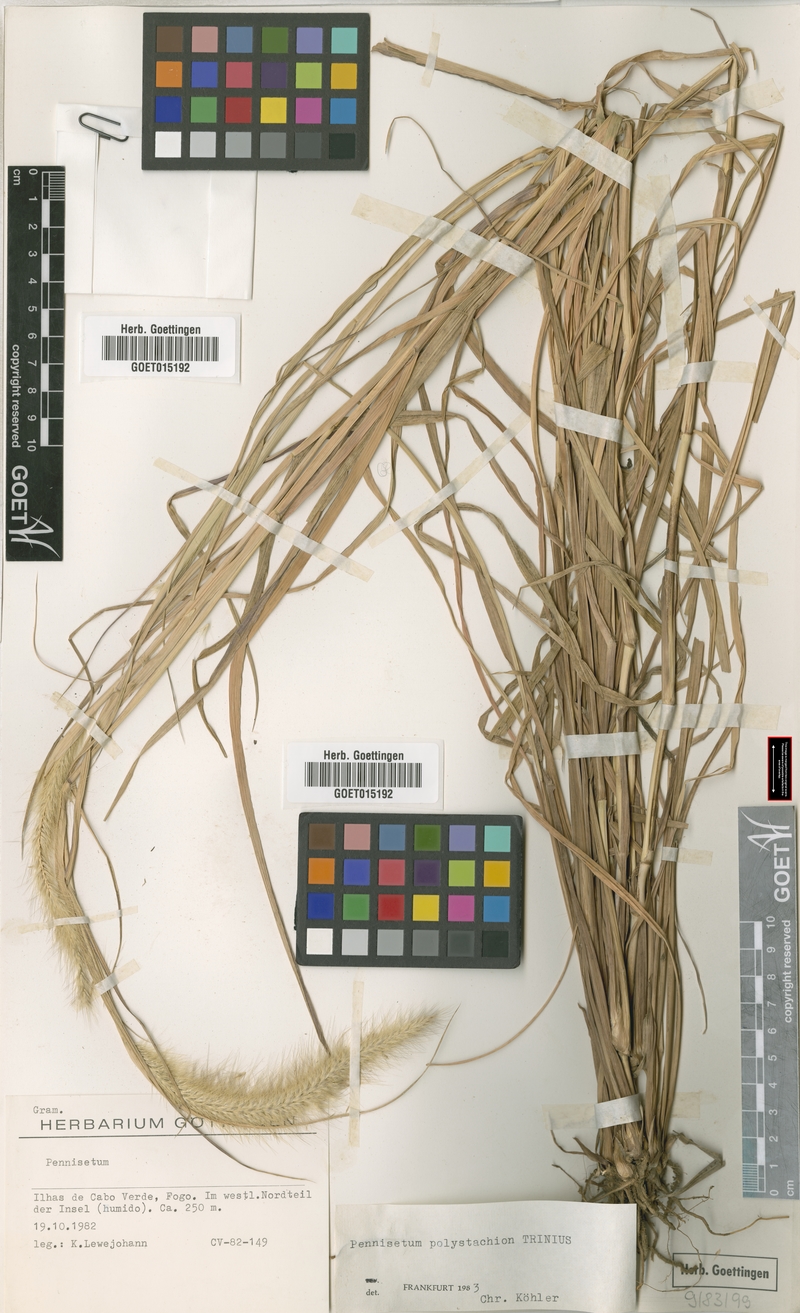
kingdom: Plantae
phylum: Tracheophyta
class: Liliopsida
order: Poales
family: Poaceae
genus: Setaria
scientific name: Setaria parviflora
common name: Knotroot bristle-grass
